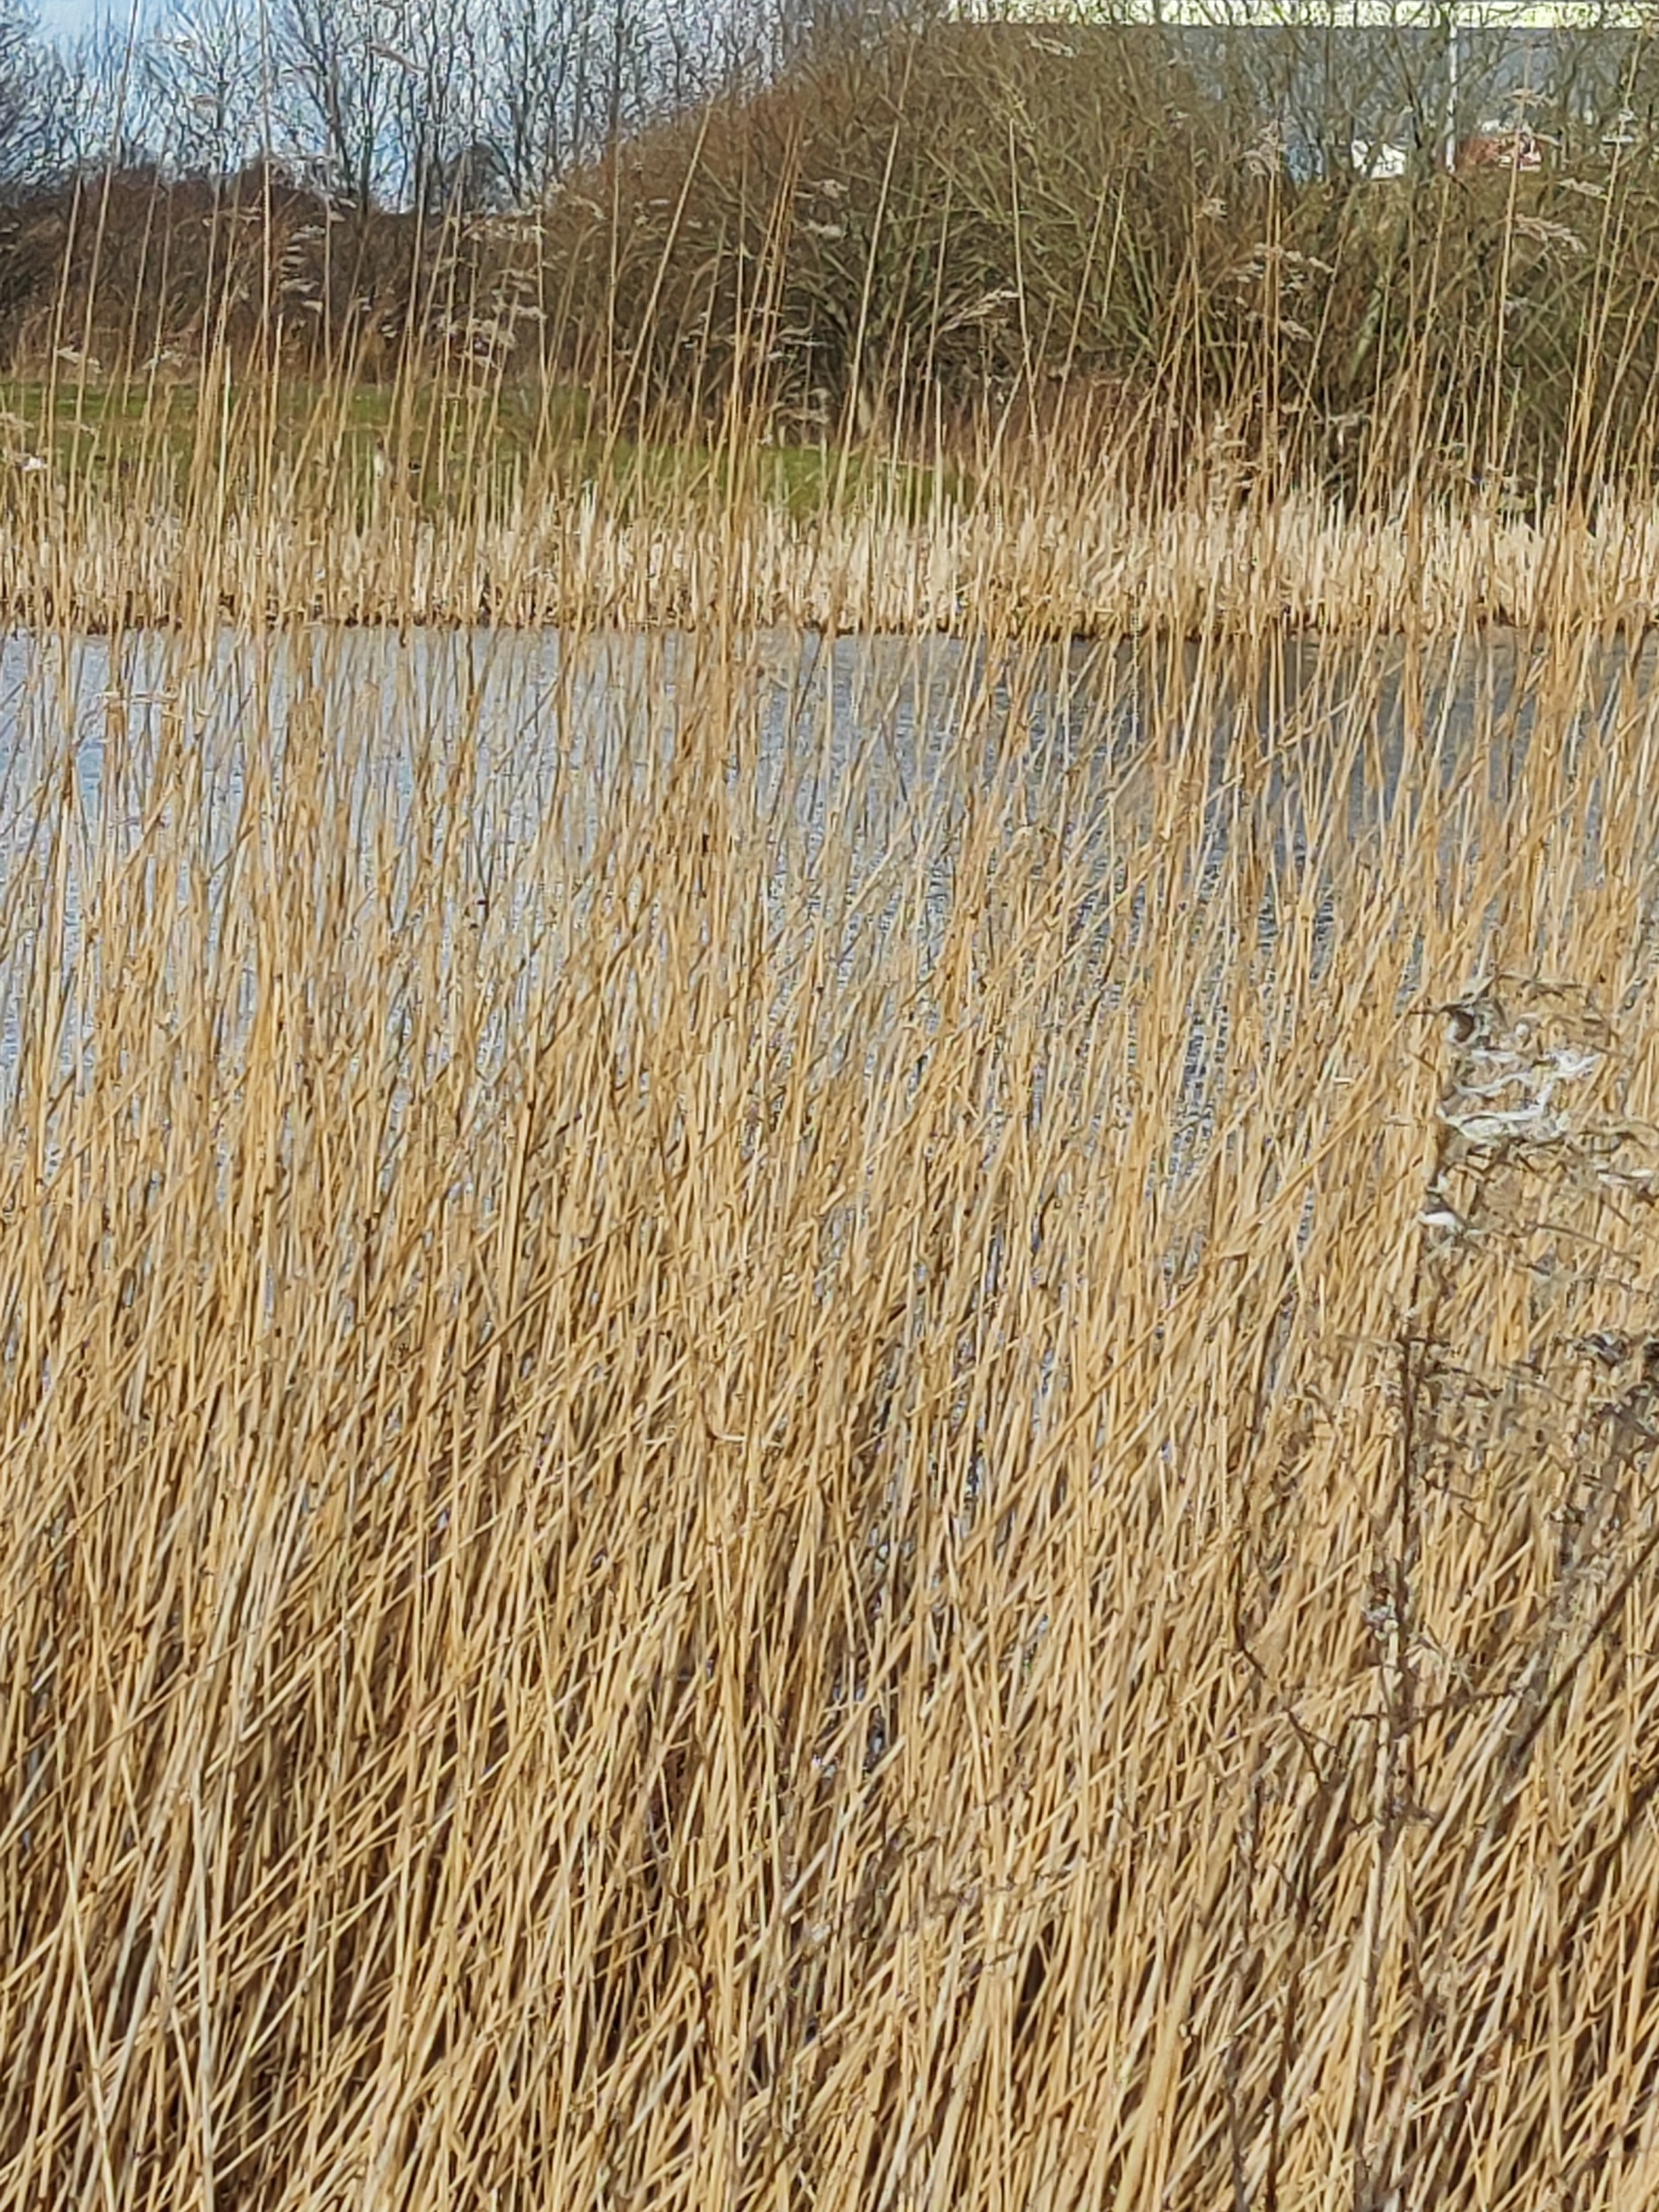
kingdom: Animalia
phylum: Chordata
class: Aves
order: Gruiformes
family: Rallidae
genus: Fulica
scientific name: Fulica atra
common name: Blishøne
